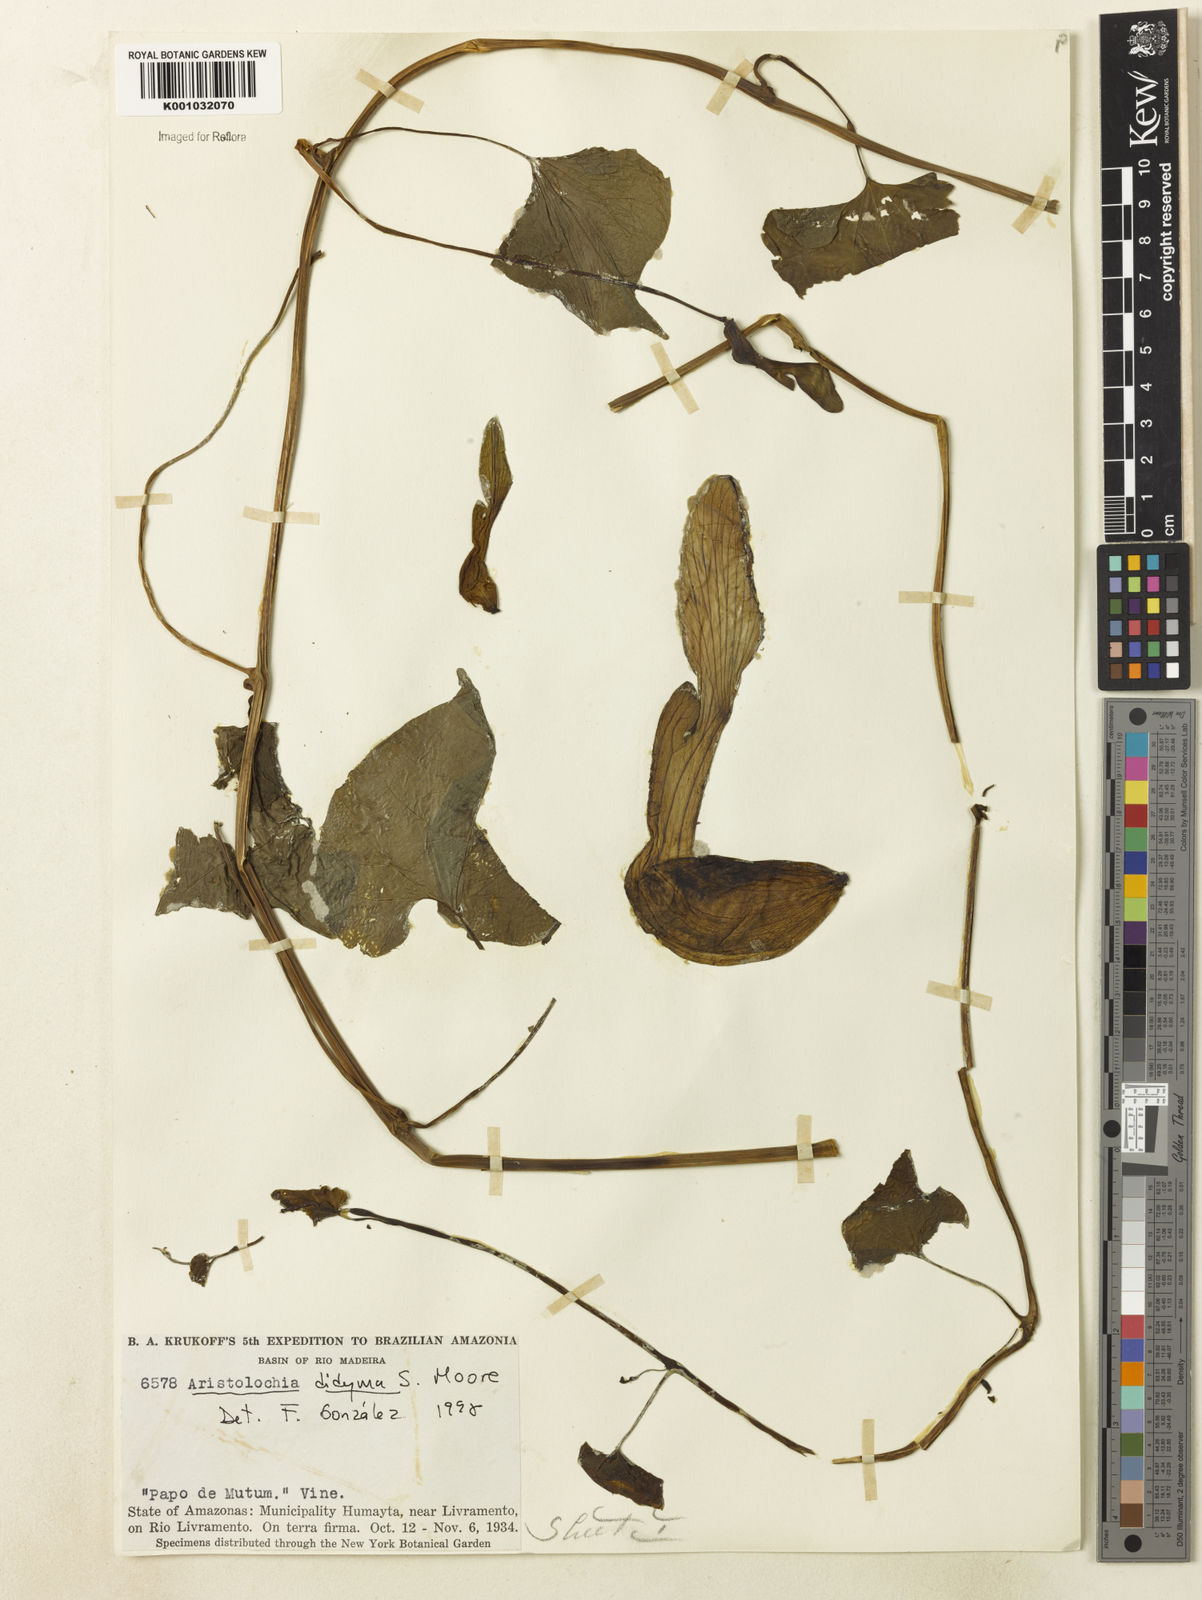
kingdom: Plantae
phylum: Tracheophyta
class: Magnoliopsida
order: Piperales
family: Aristolochiaceae
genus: Aristolochia
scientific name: Aristolochia
